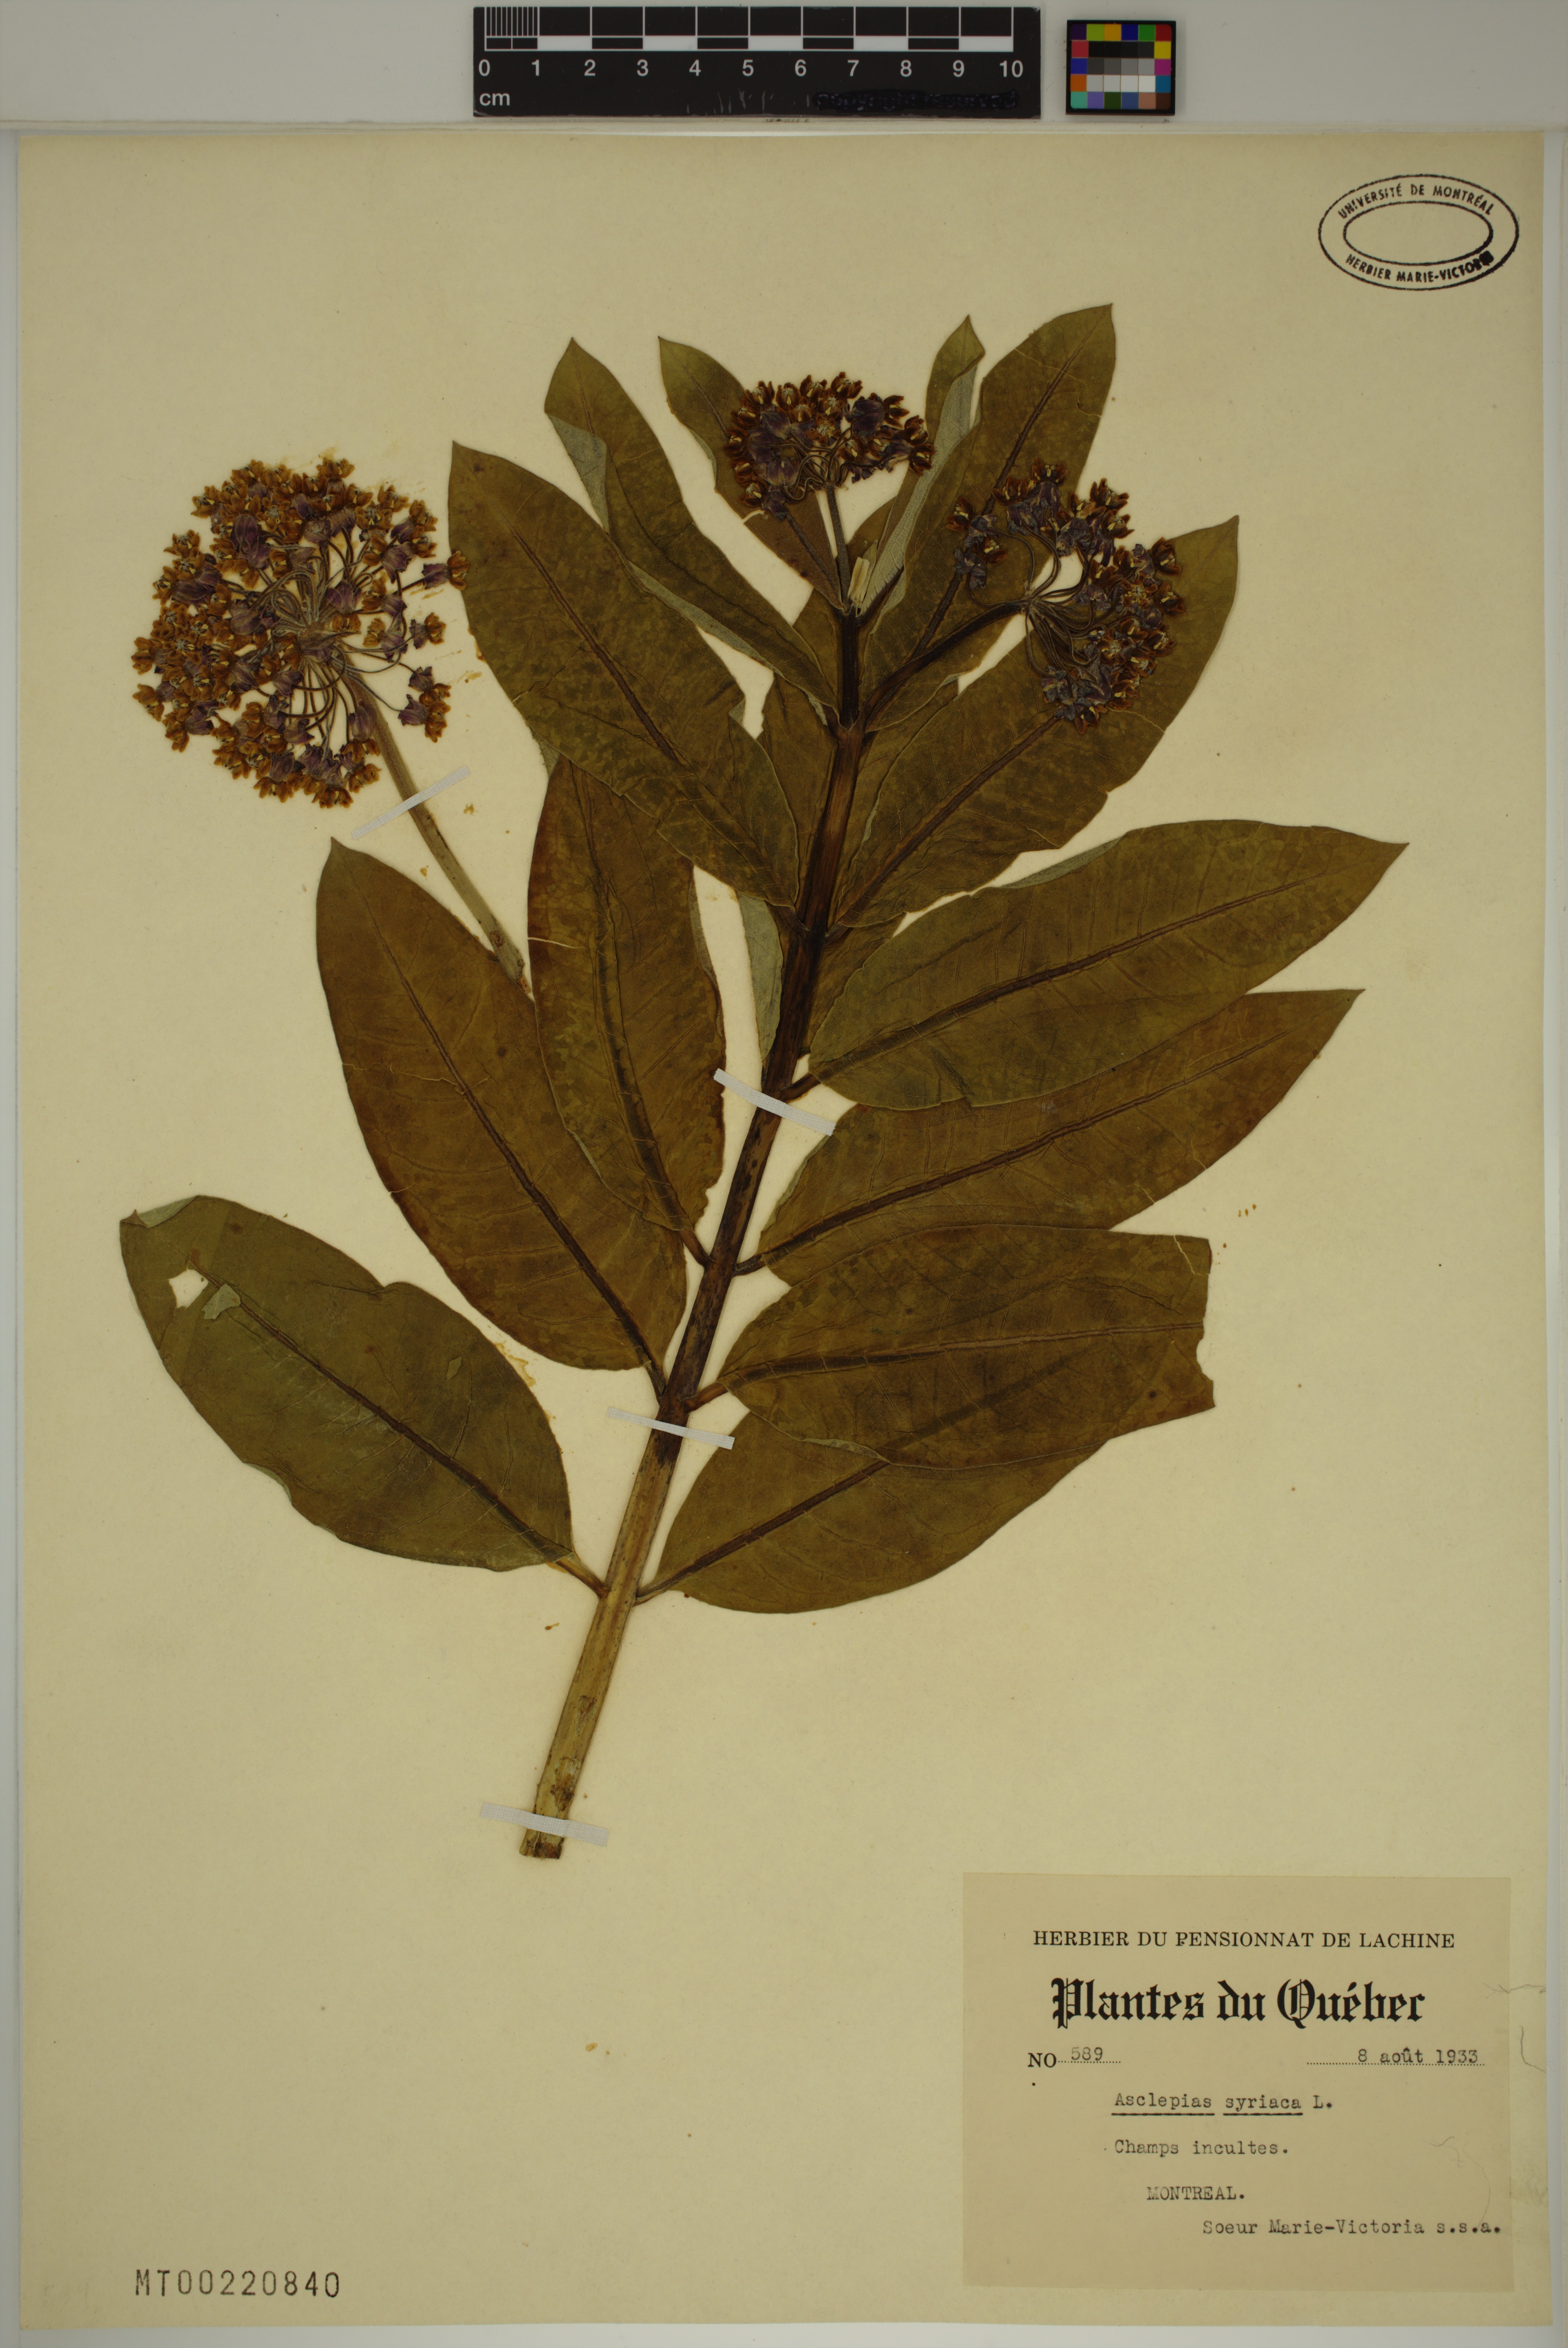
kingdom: Plantae
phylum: Tracheophyta
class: Magnoliopsida
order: Gentianales
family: Apocynaceae
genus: Asclepias
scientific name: Asclepias syriaca
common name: Common milkweed
